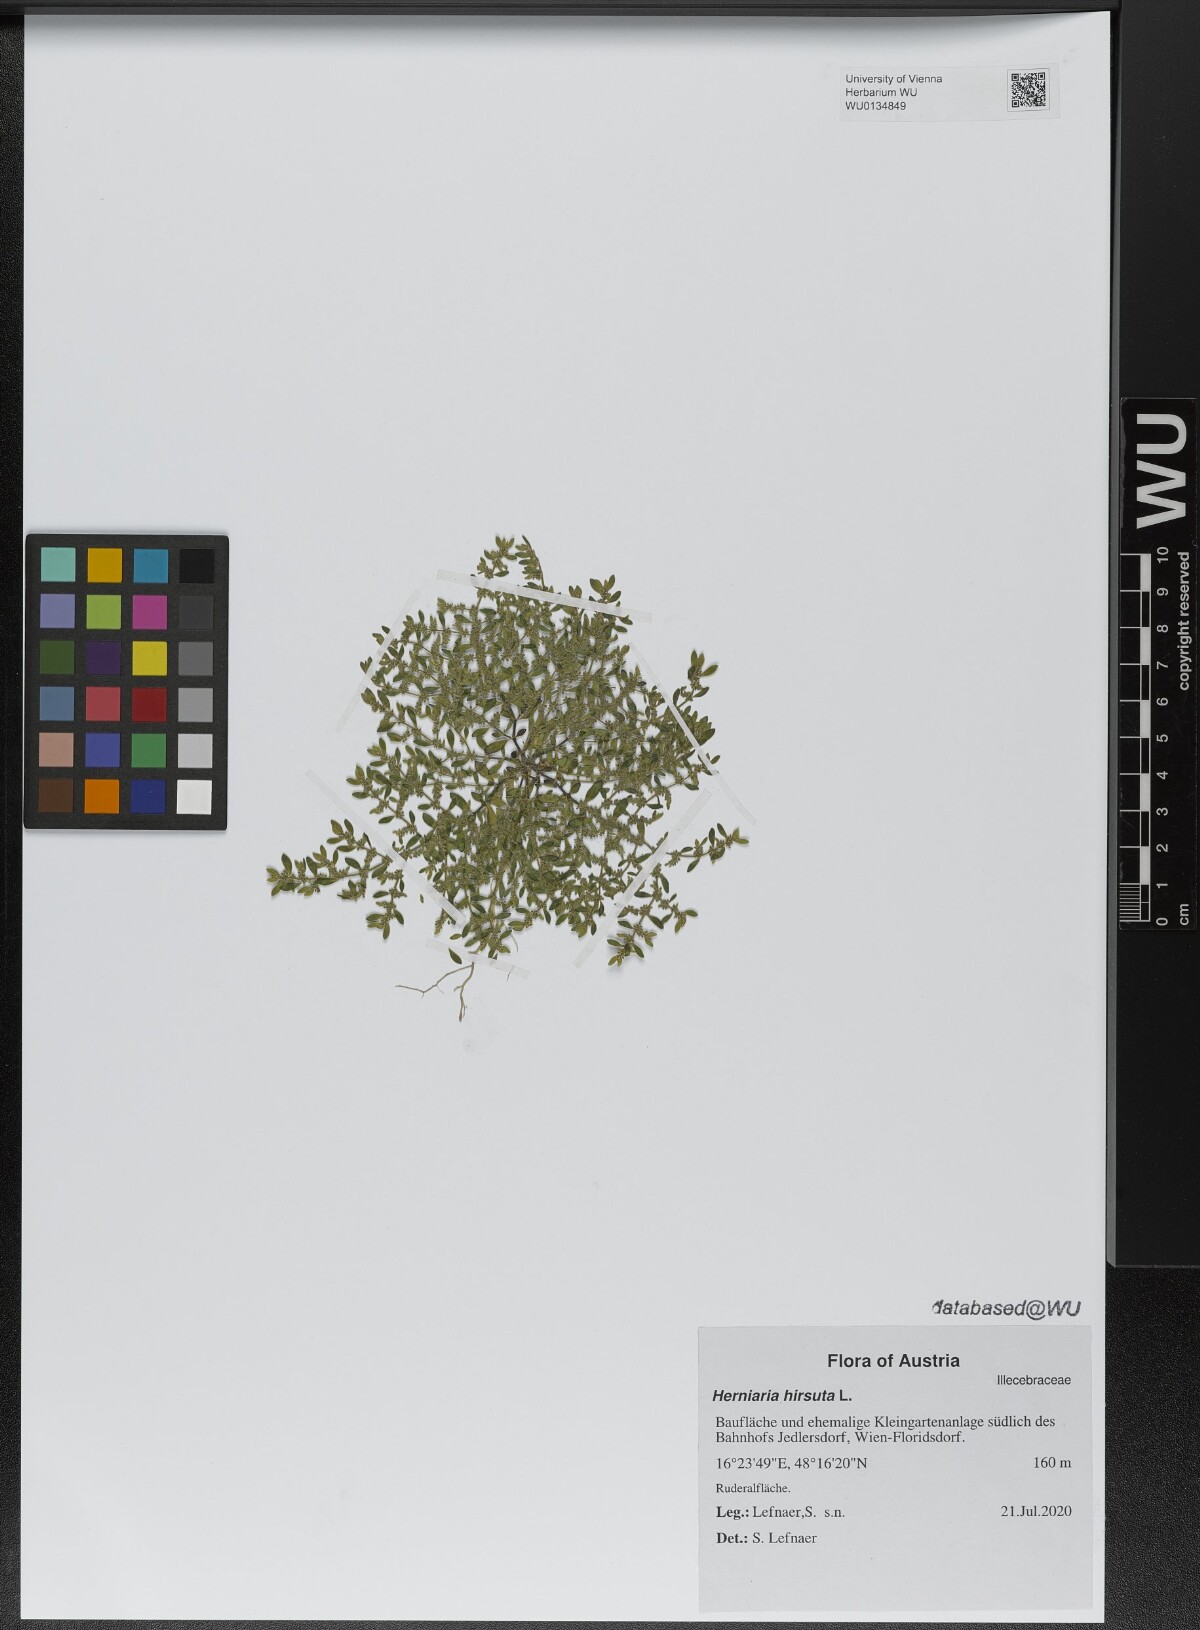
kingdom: Plantae
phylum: Tracheophyta
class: Magnoliopsida
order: Caryophyllales
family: Caryophyllaceae
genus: Herniaria
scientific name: Herniaria hirsuta
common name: Hairy rupturewort
